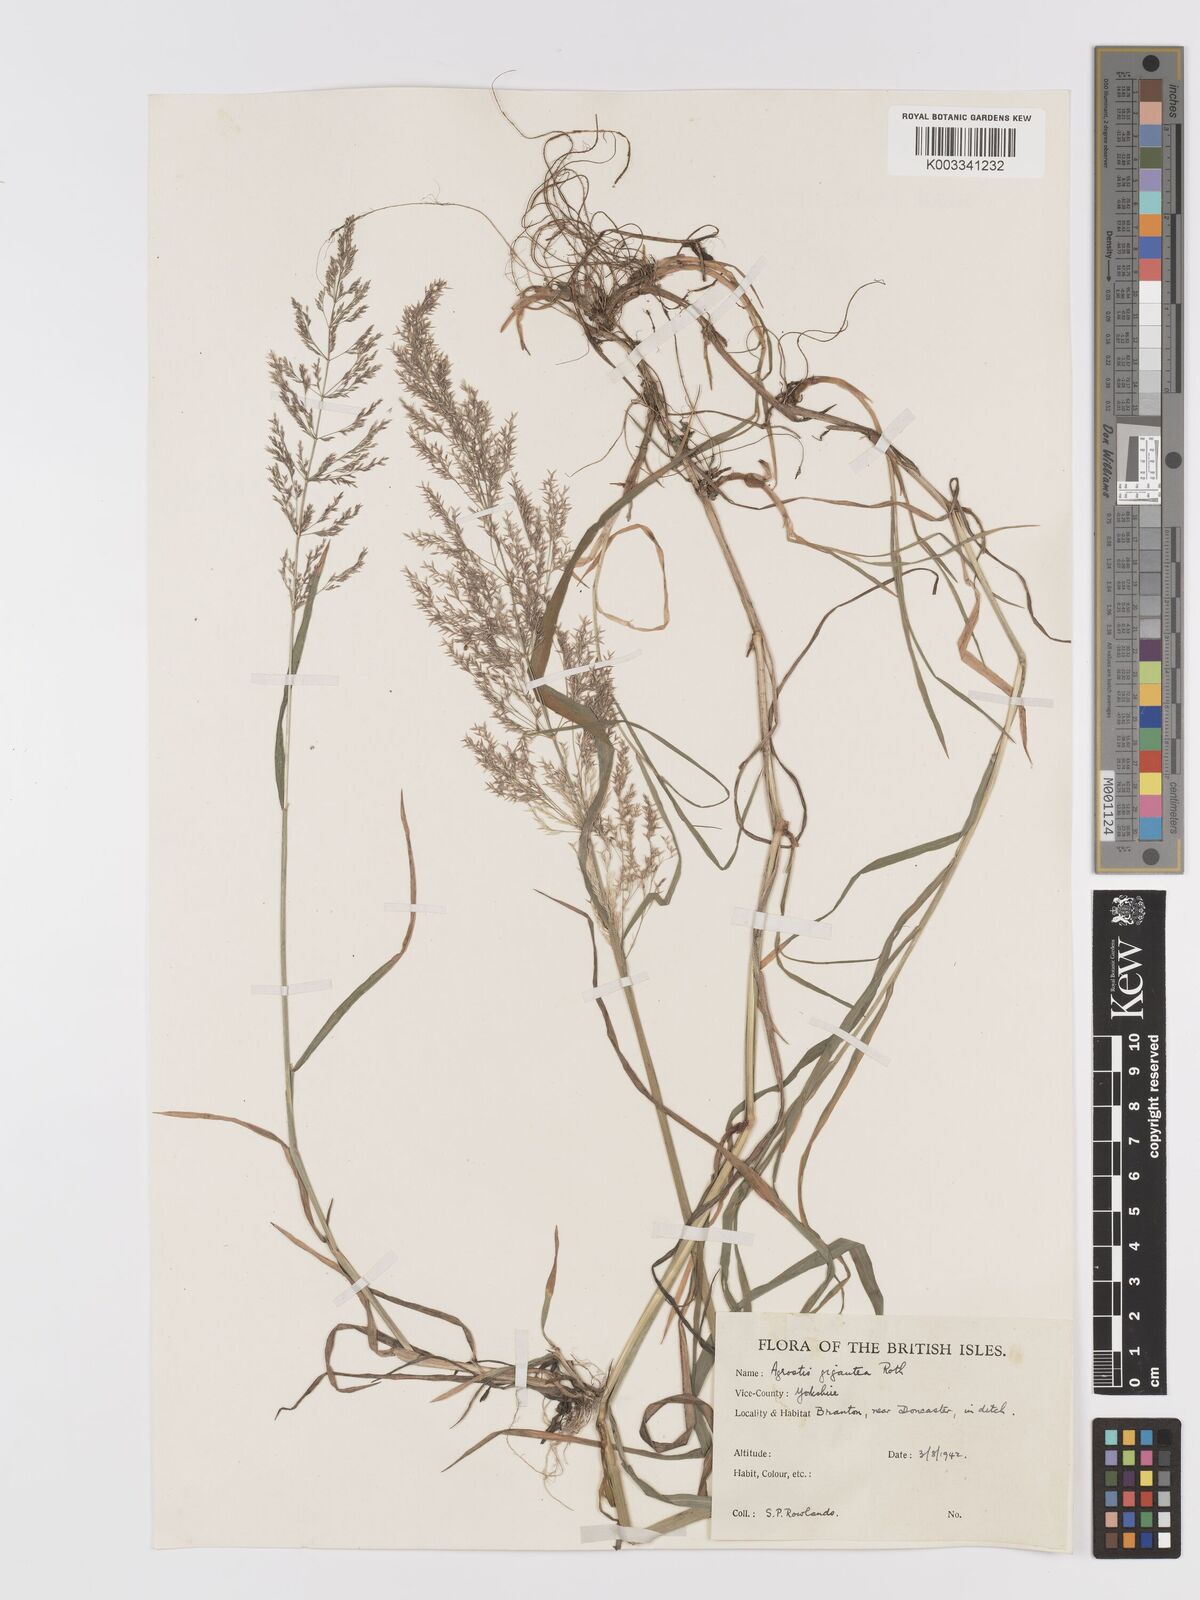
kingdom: Plantae
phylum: Tracheophyta
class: Liliopsida
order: Poales
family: Poaceae
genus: Agrostis
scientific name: Agrostis gigantea
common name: Black bent
